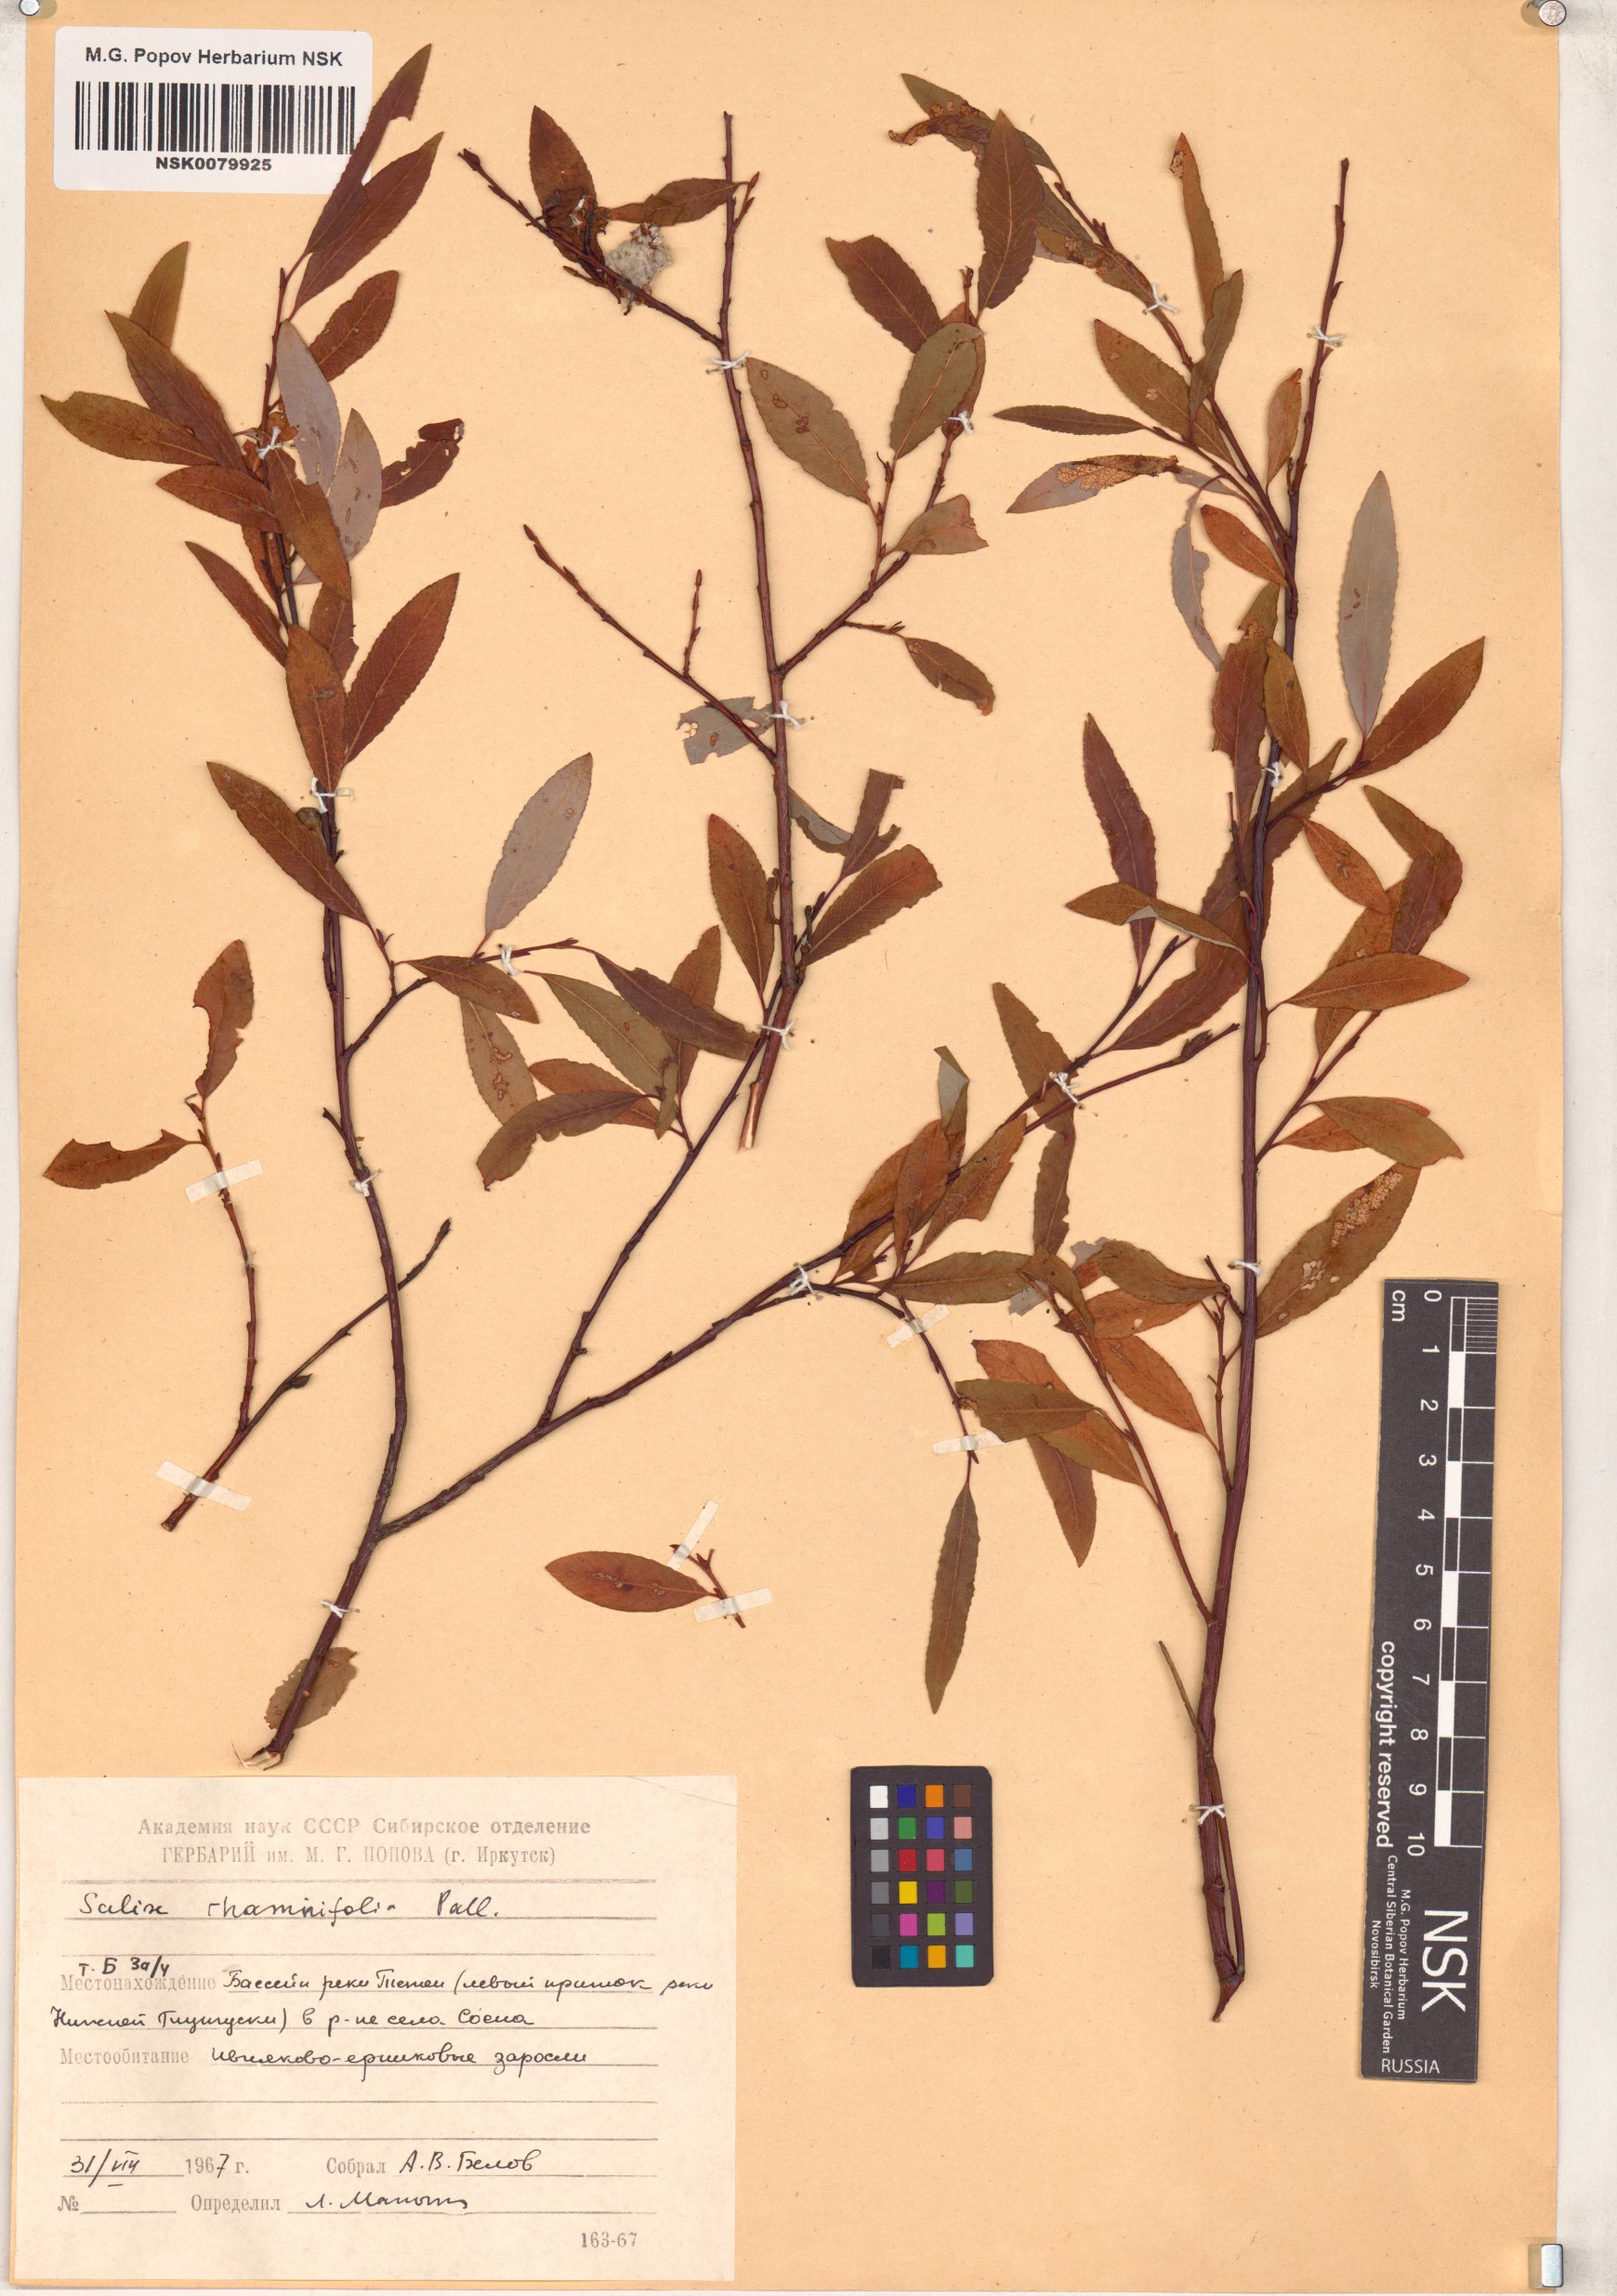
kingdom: Plantae
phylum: Tracheophyta
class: Magnoliopsida
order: Malpighiales
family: Salicaceae
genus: Salix
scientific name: Salix rhamnifolia
